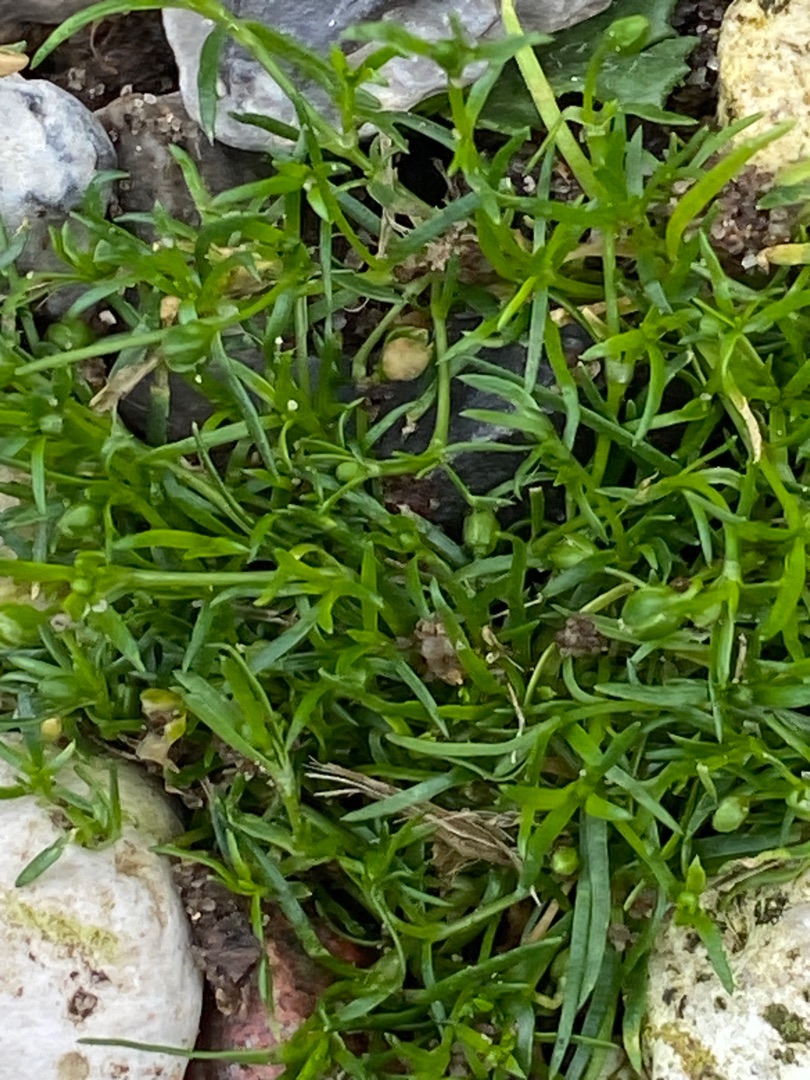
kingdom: Plantae
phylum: Tracheophyta
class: Magnoliopsida
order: Caryophyllales
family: Caryophyllaceae
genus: Sagina
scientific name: Sagina procumbens
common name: Almindelig firling
